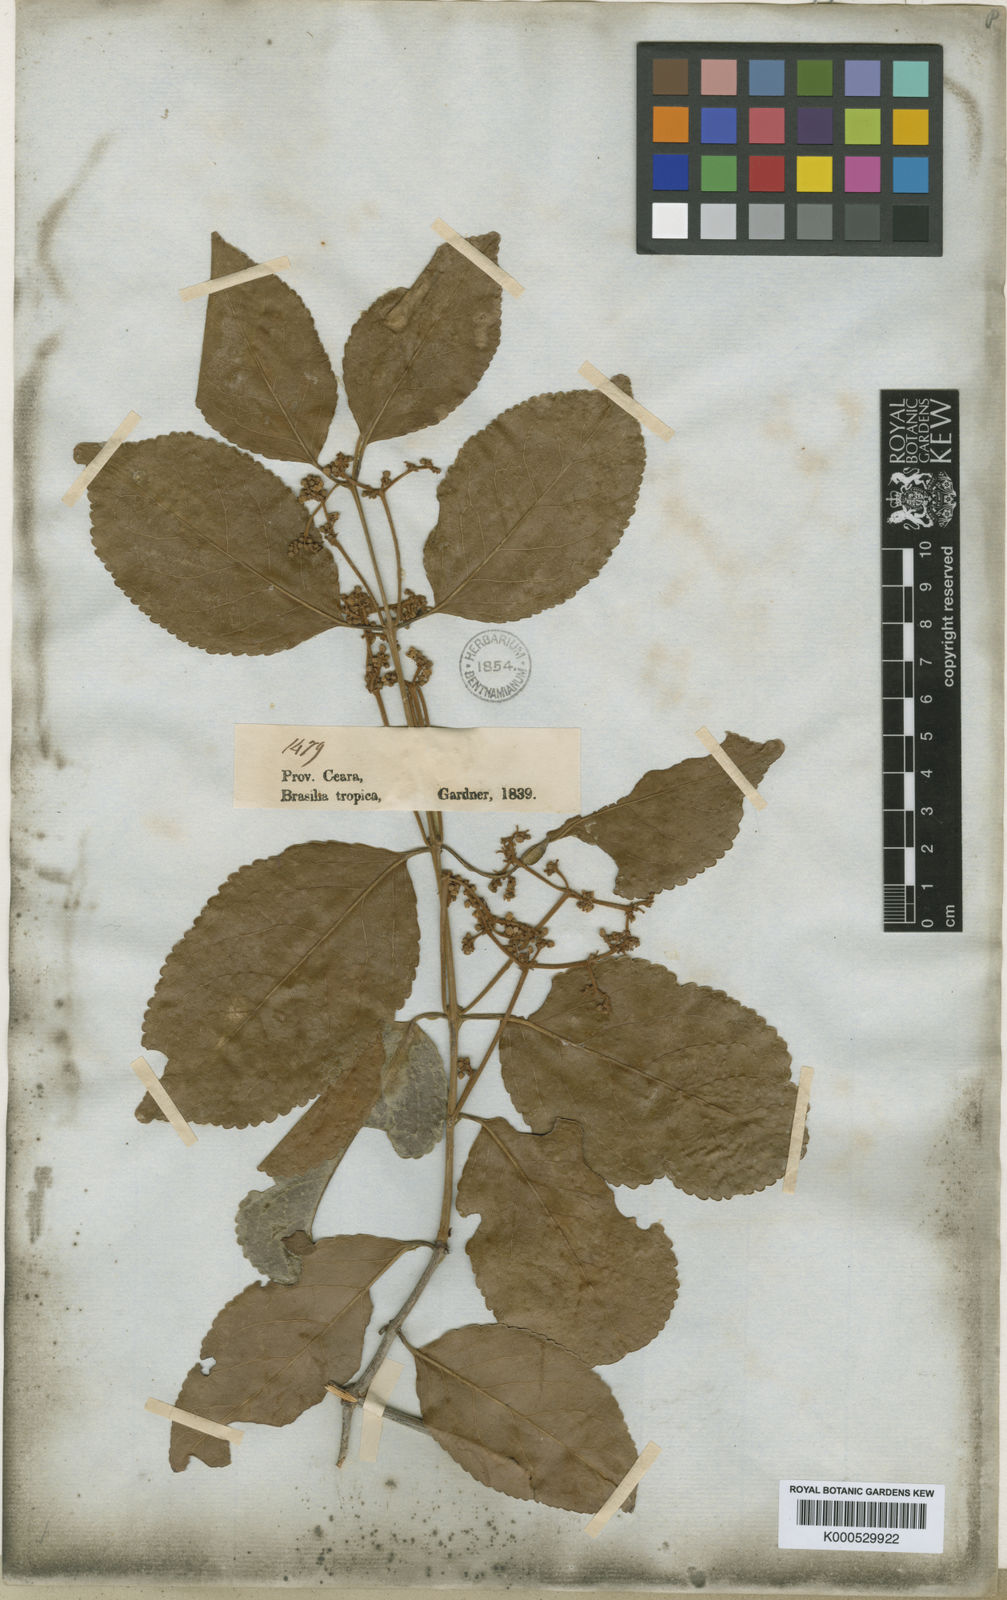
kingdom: Plantae
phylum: Tracheophyta
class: Magnoliopsida
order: Celastrales
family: Celastraceae
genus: Hippocratea
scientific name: Hippocratea volubilis
